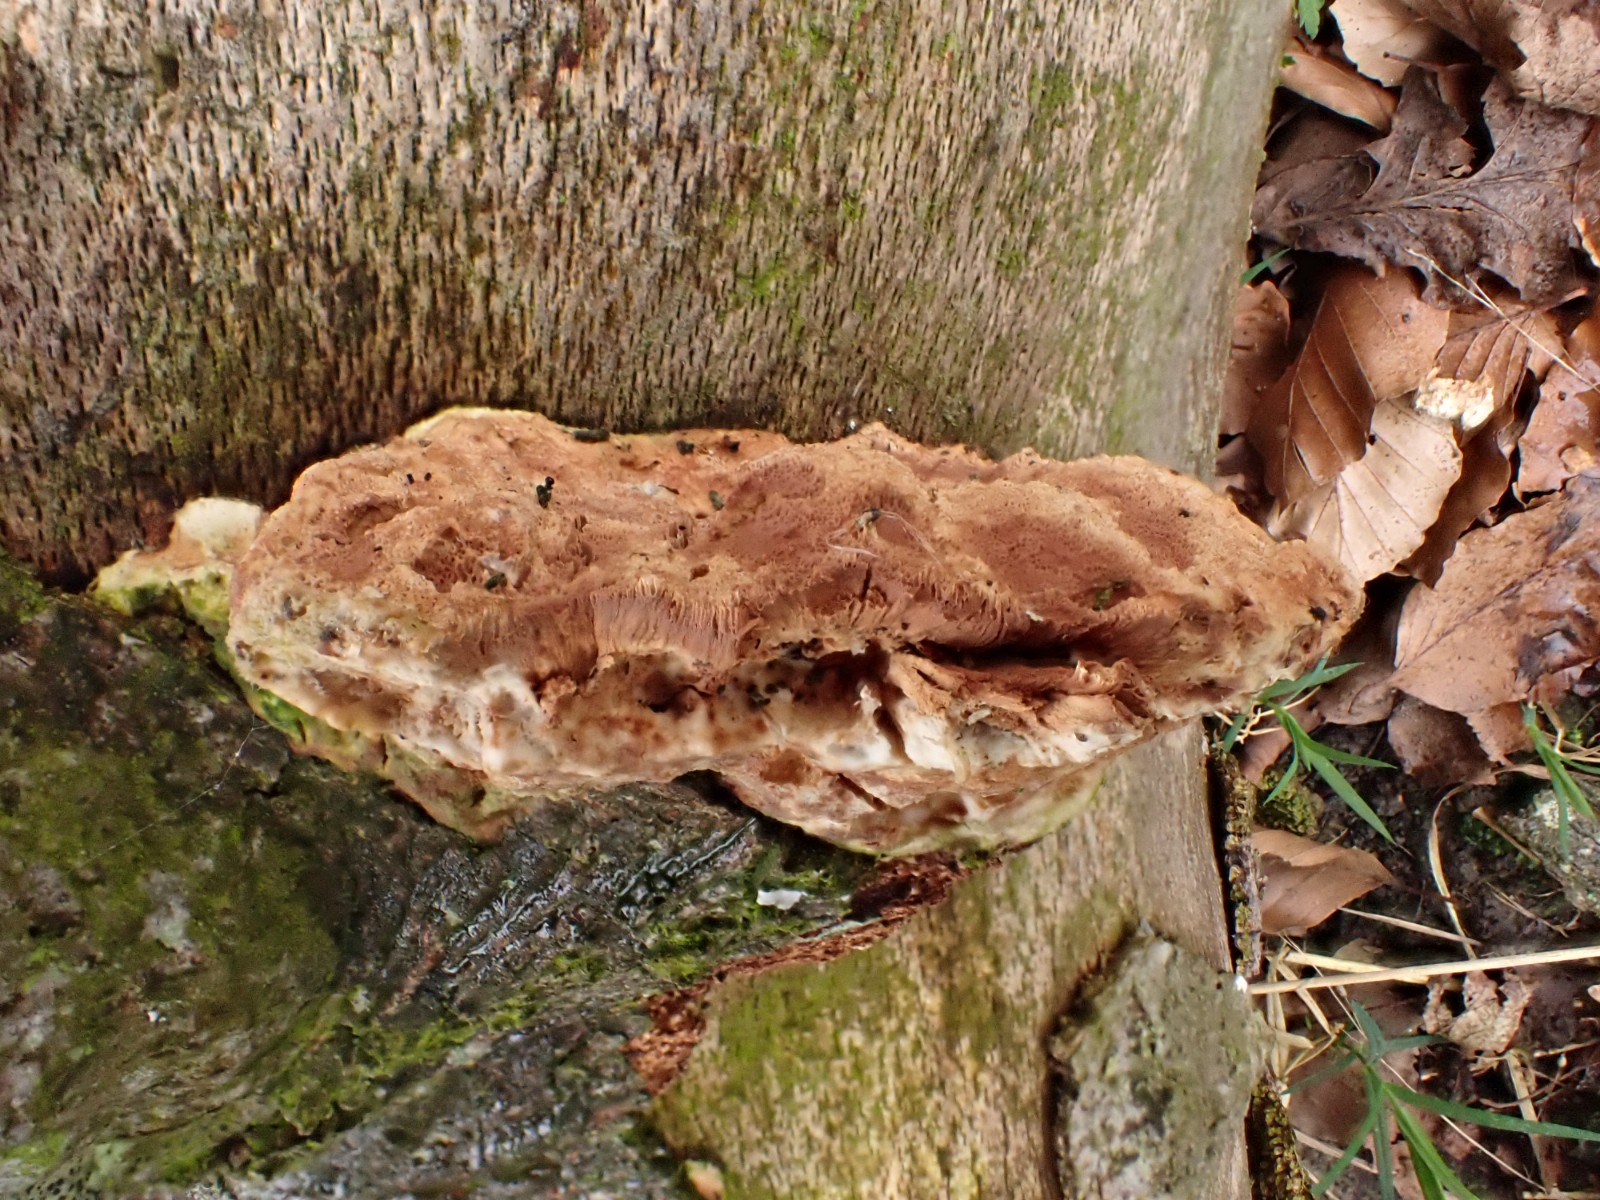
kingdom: Fungi
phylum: Basidiomycota
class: Agaricomycetes
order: Polyporales
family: Phanerochaetaceae
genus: Hapalopilus
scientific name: Hapalopilus rutilans
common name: rødlig okkerporesvamp
